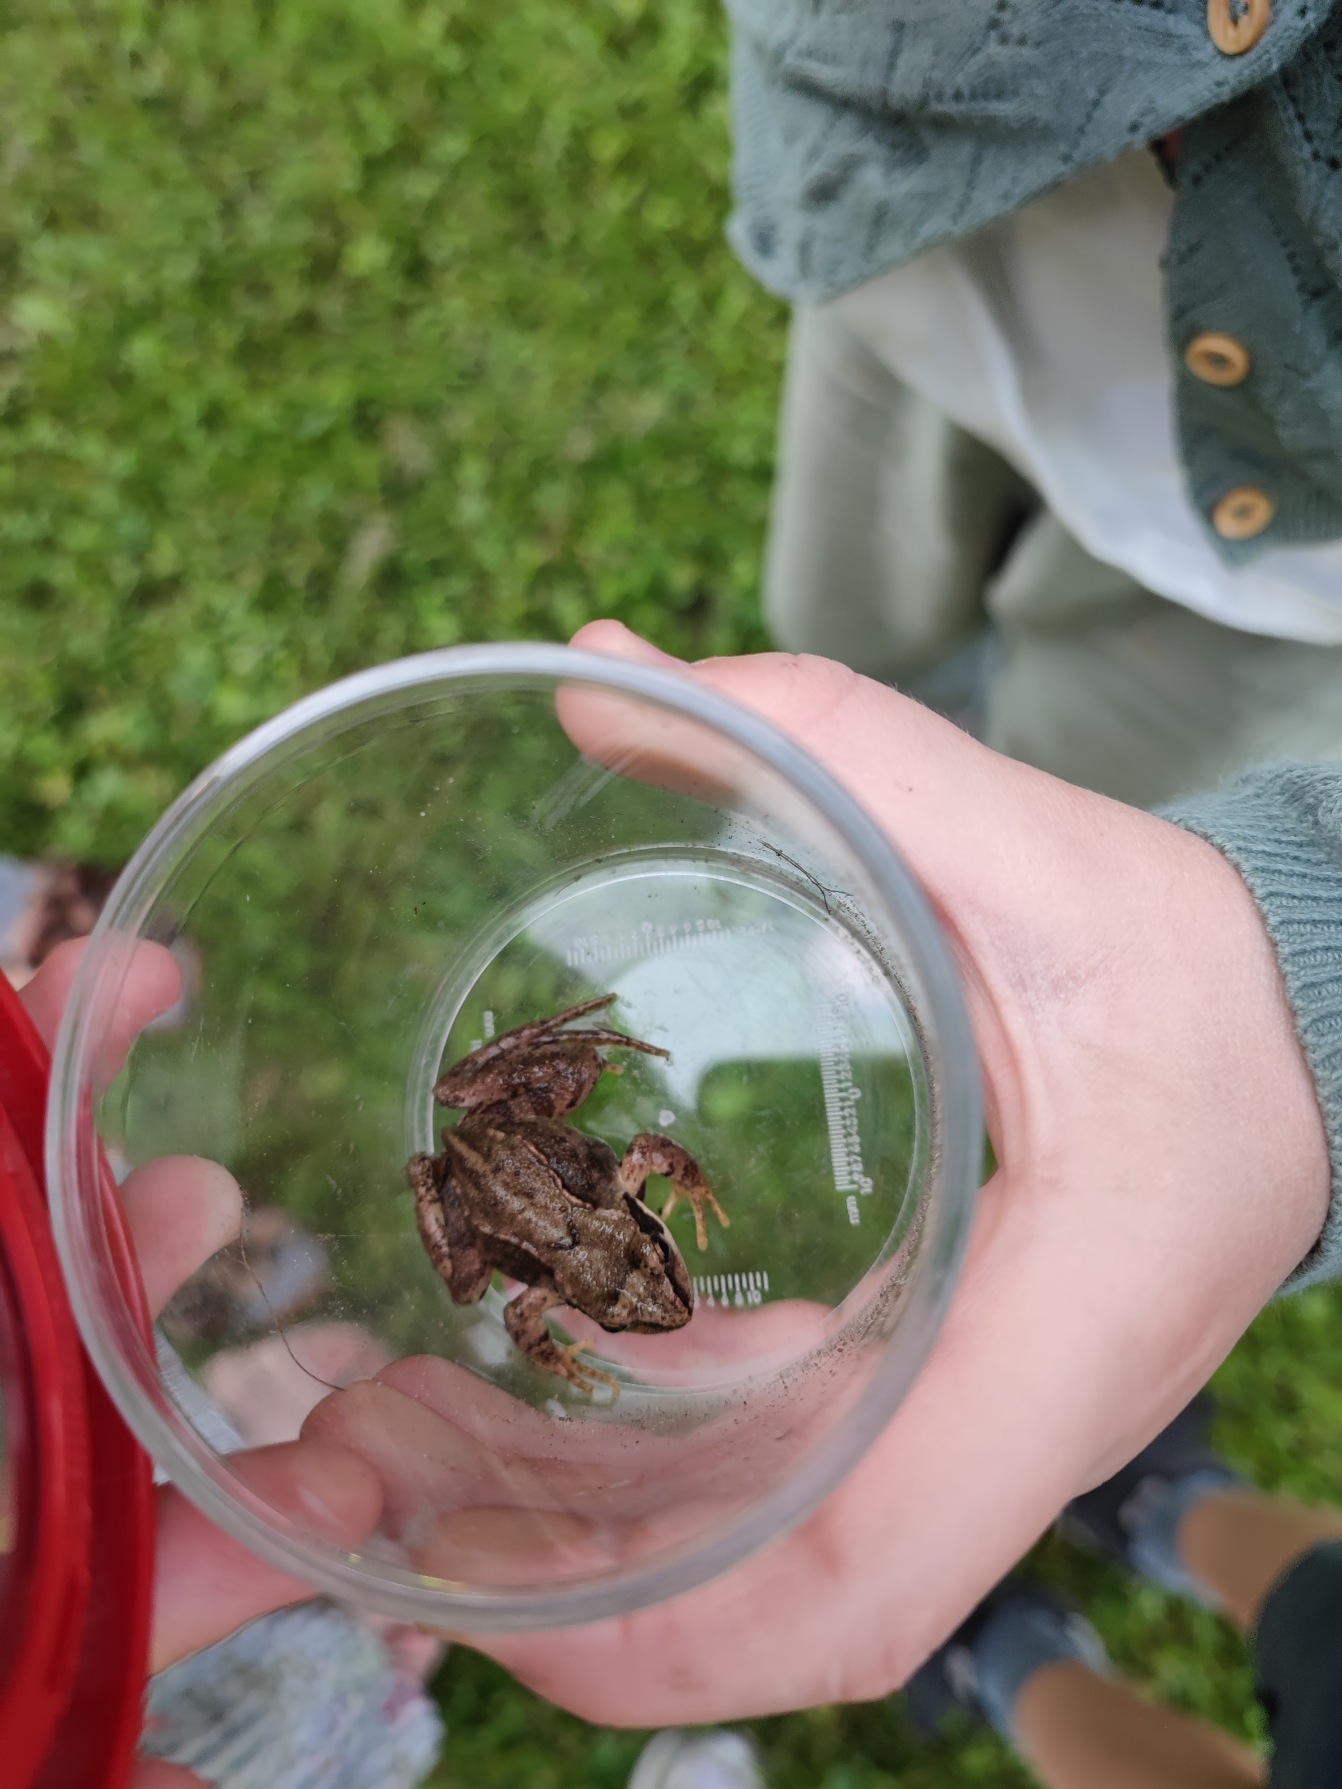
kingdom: Animalia
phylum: Chordata
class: Amphibia
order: Anura
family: Ranidae
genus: Rana
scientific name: Rana temporaria
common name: Butsnudet frø
